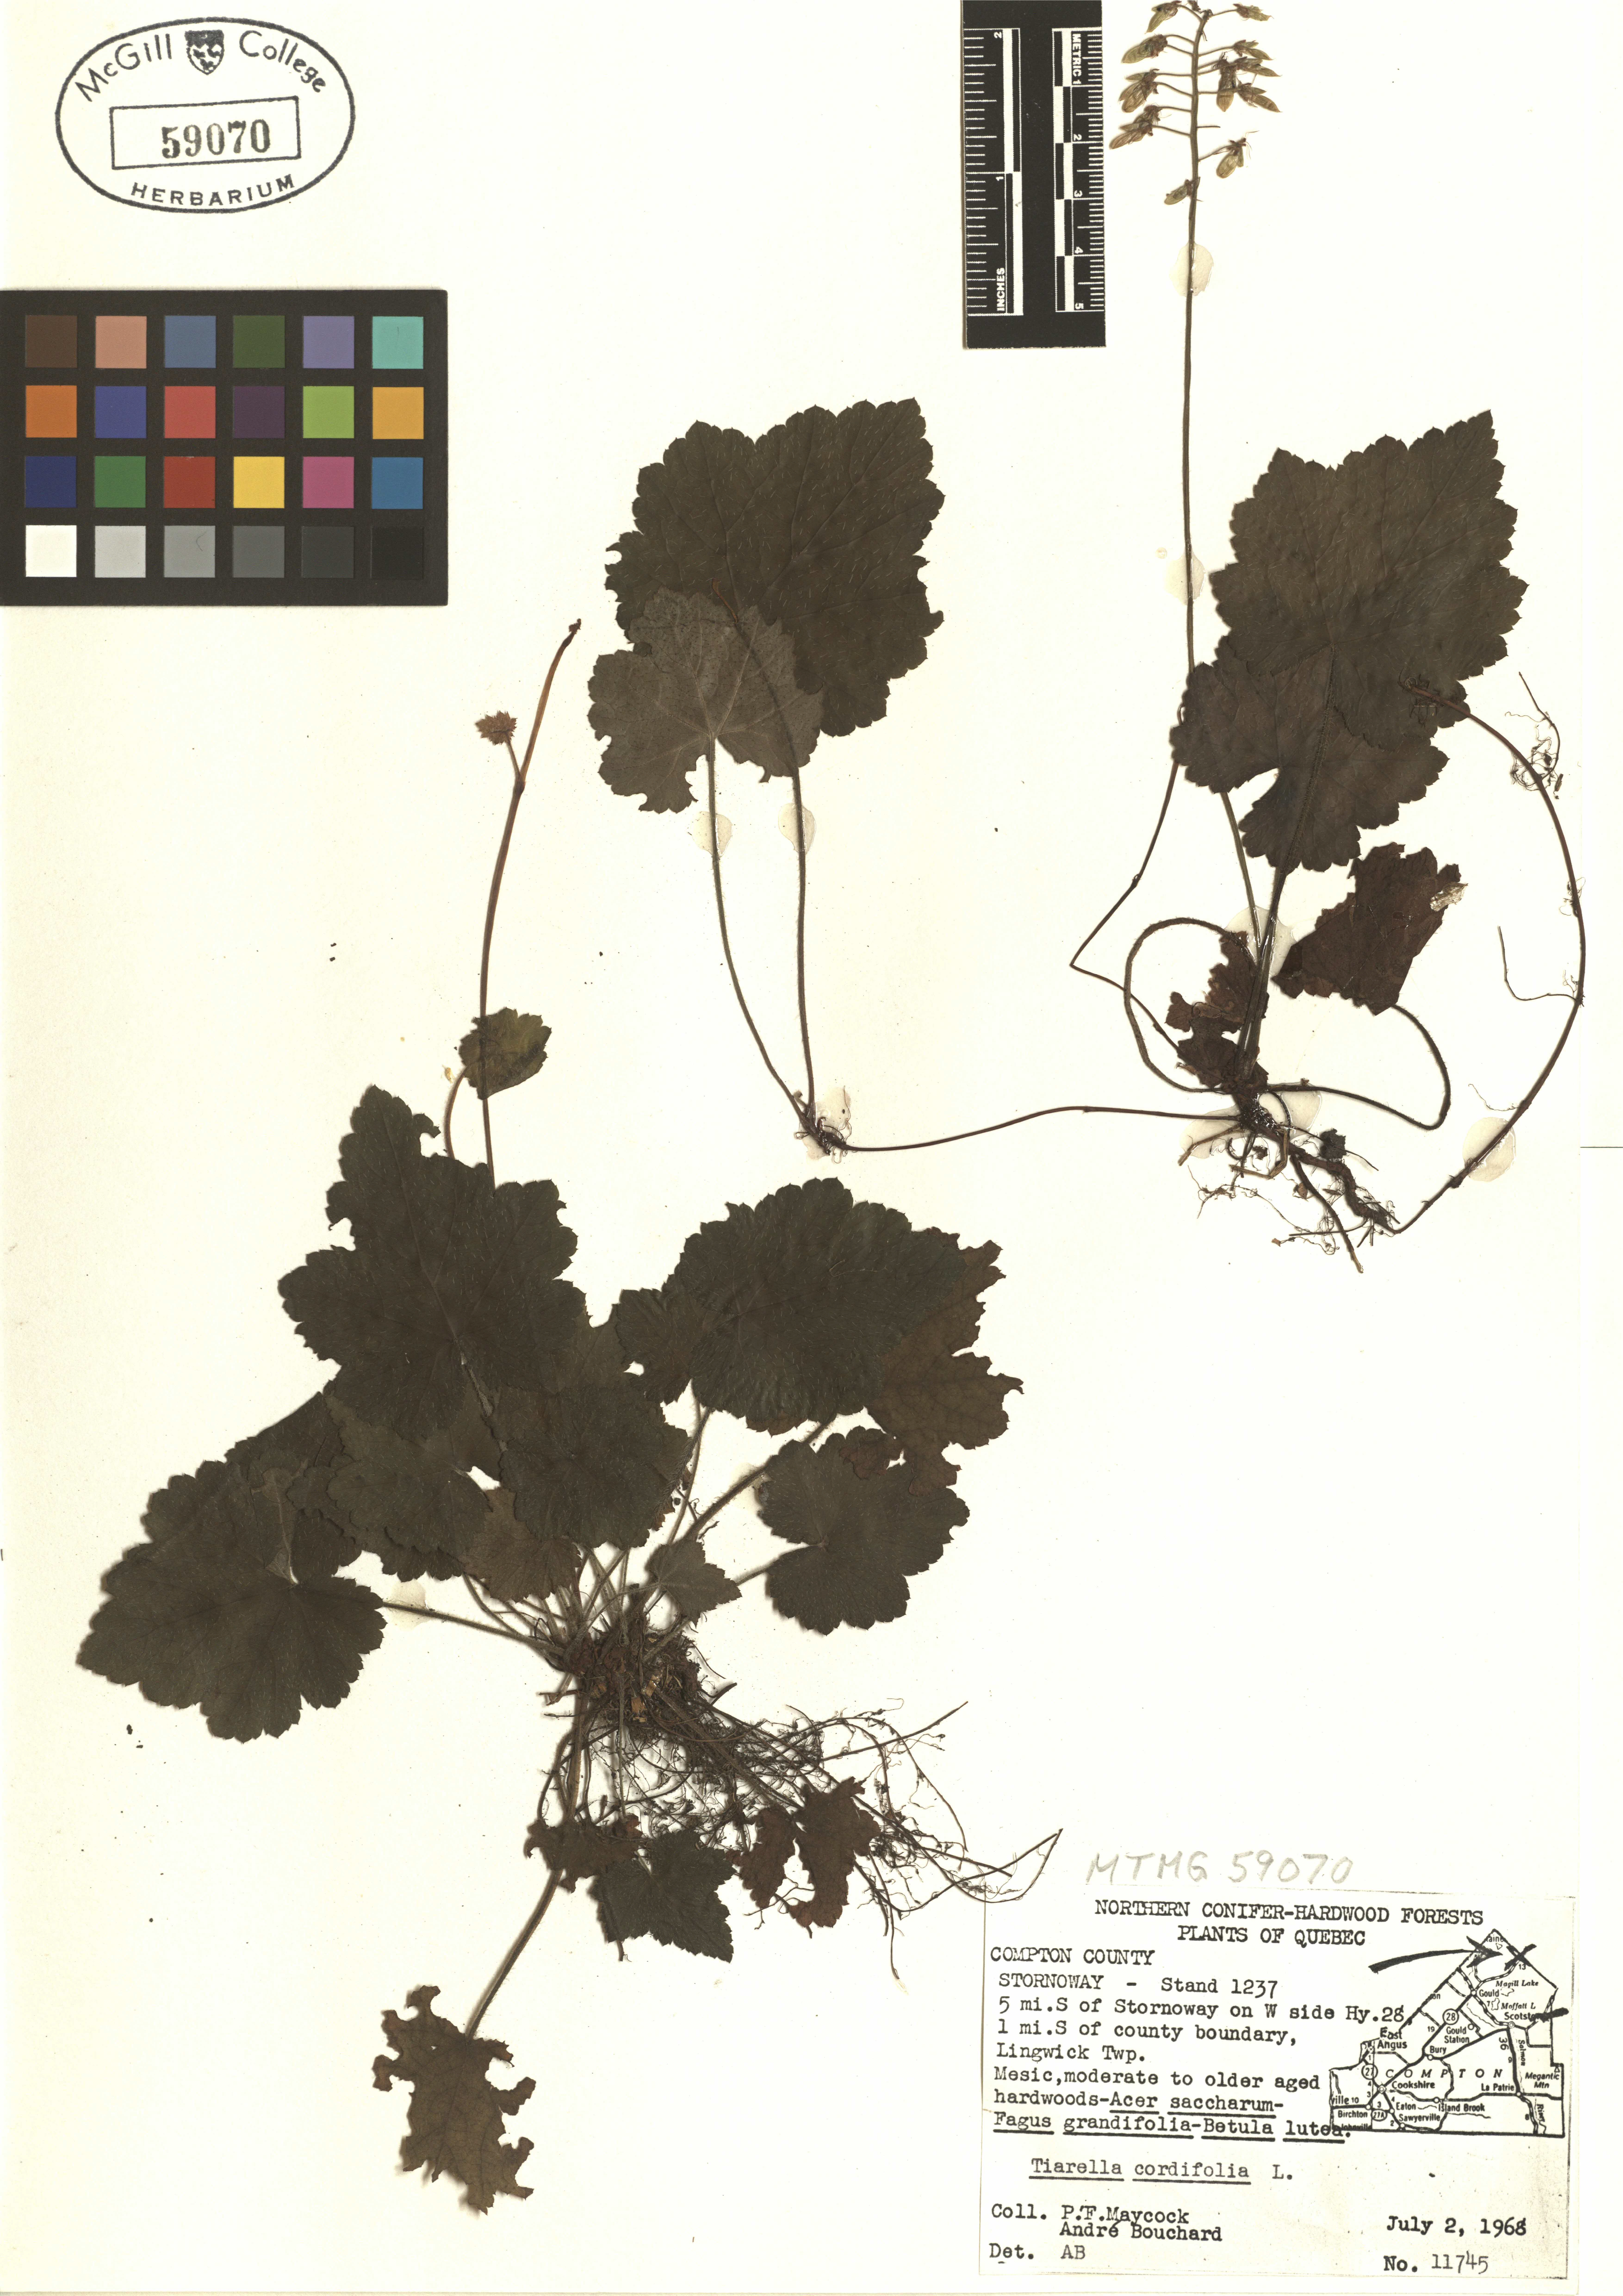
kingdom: Plantae
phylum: Tracheophyta
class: Magnoliopsida
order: Saxifragales
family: Saxifragaceae
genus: Tiarella
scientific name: Tiarella cordifolia
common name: Foamflower
